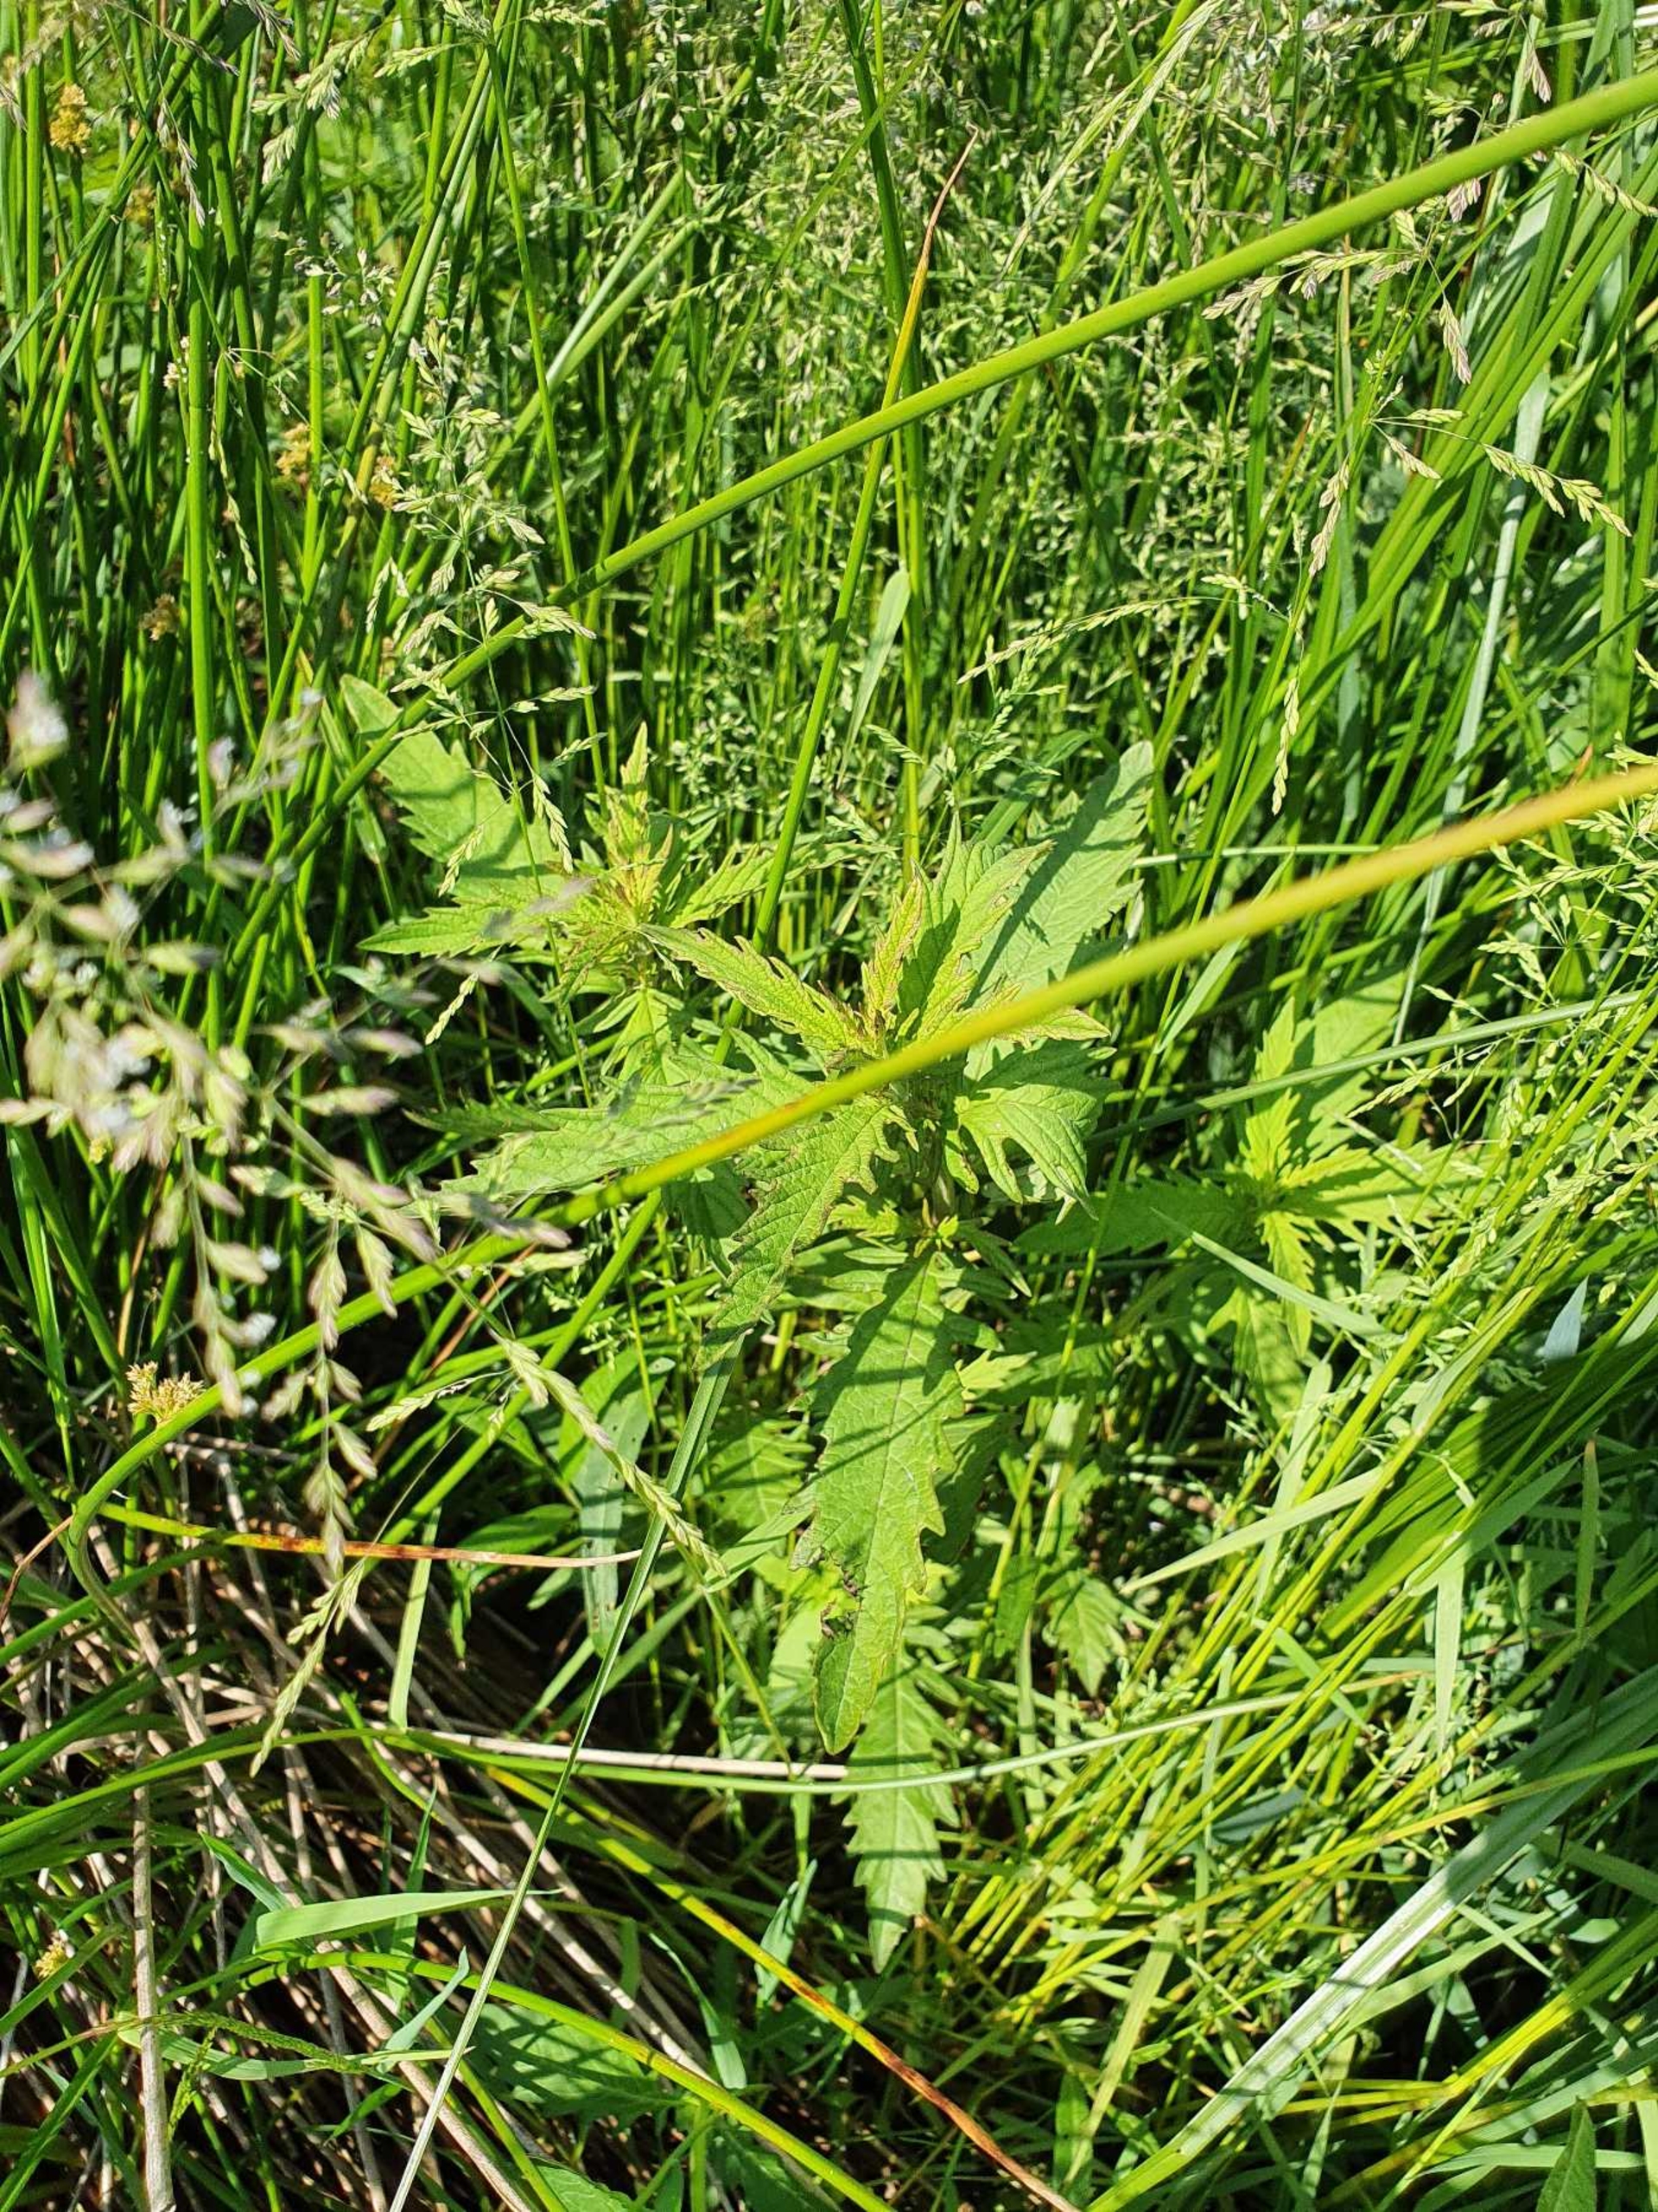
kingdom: Plantae
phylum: Tracheophyta
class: Magnoliopsida
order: Lamiales
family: Lamiaceae
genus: Lycopus
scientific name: Lycopus europaeus
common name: Sværtevæld
